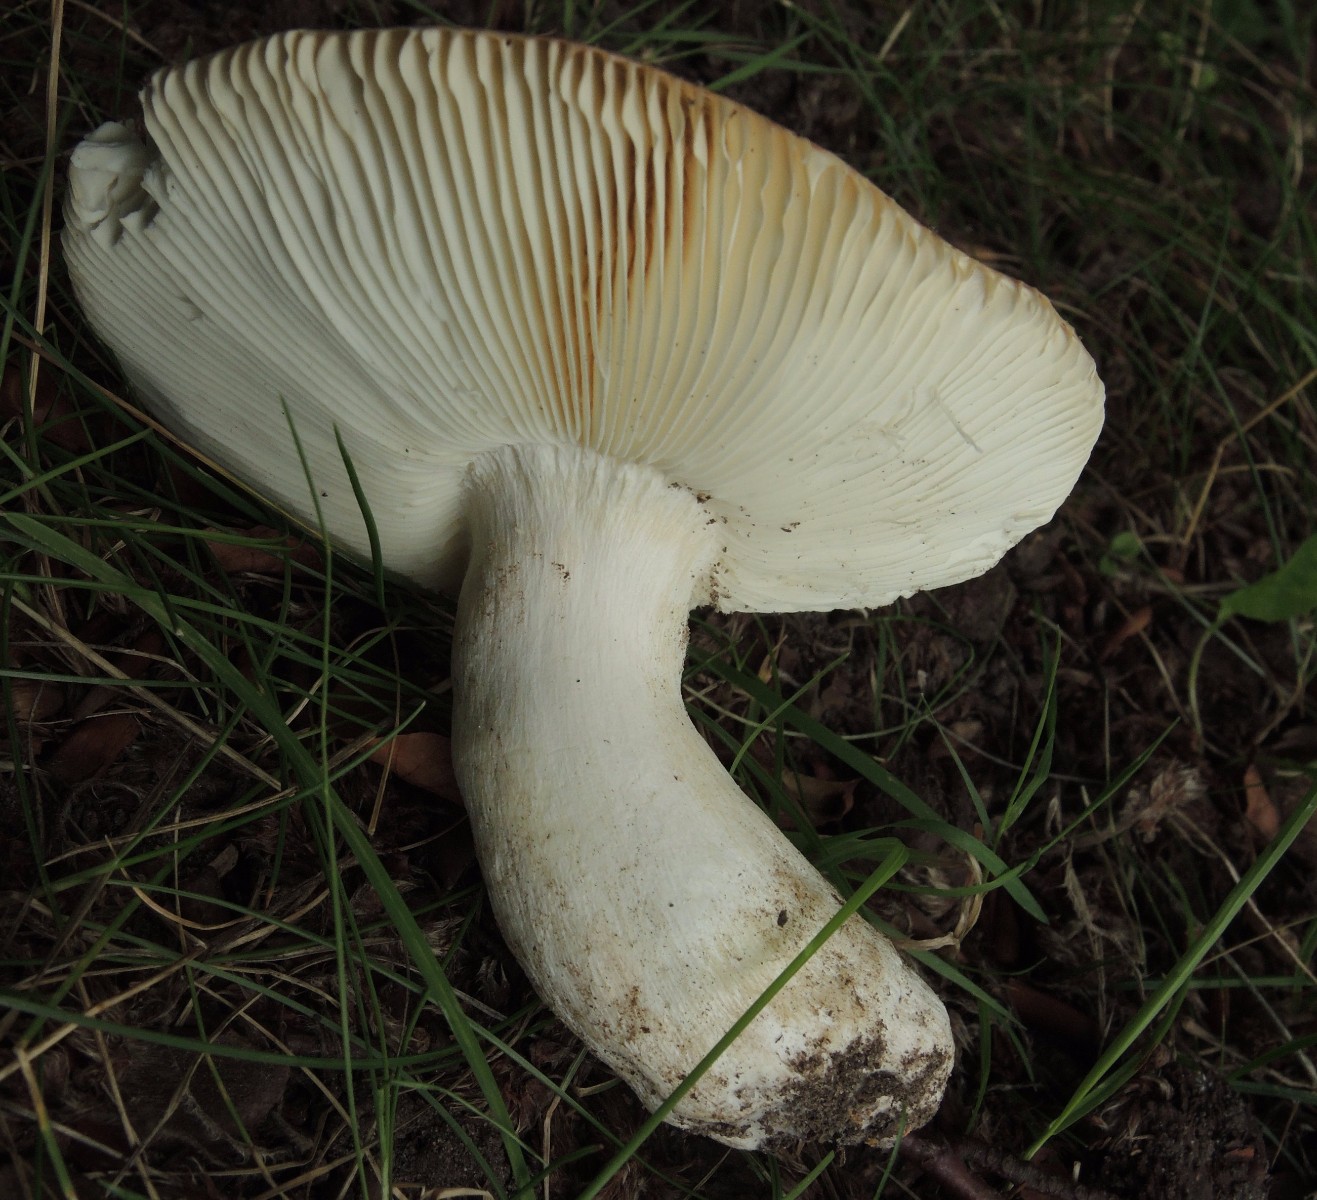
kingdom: Fungi
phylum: Basidiomycota
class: Agaricomycetes
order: Russulales
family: Russulaceae
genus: Russula
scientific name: Russula aurora
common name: rosa skørhat
